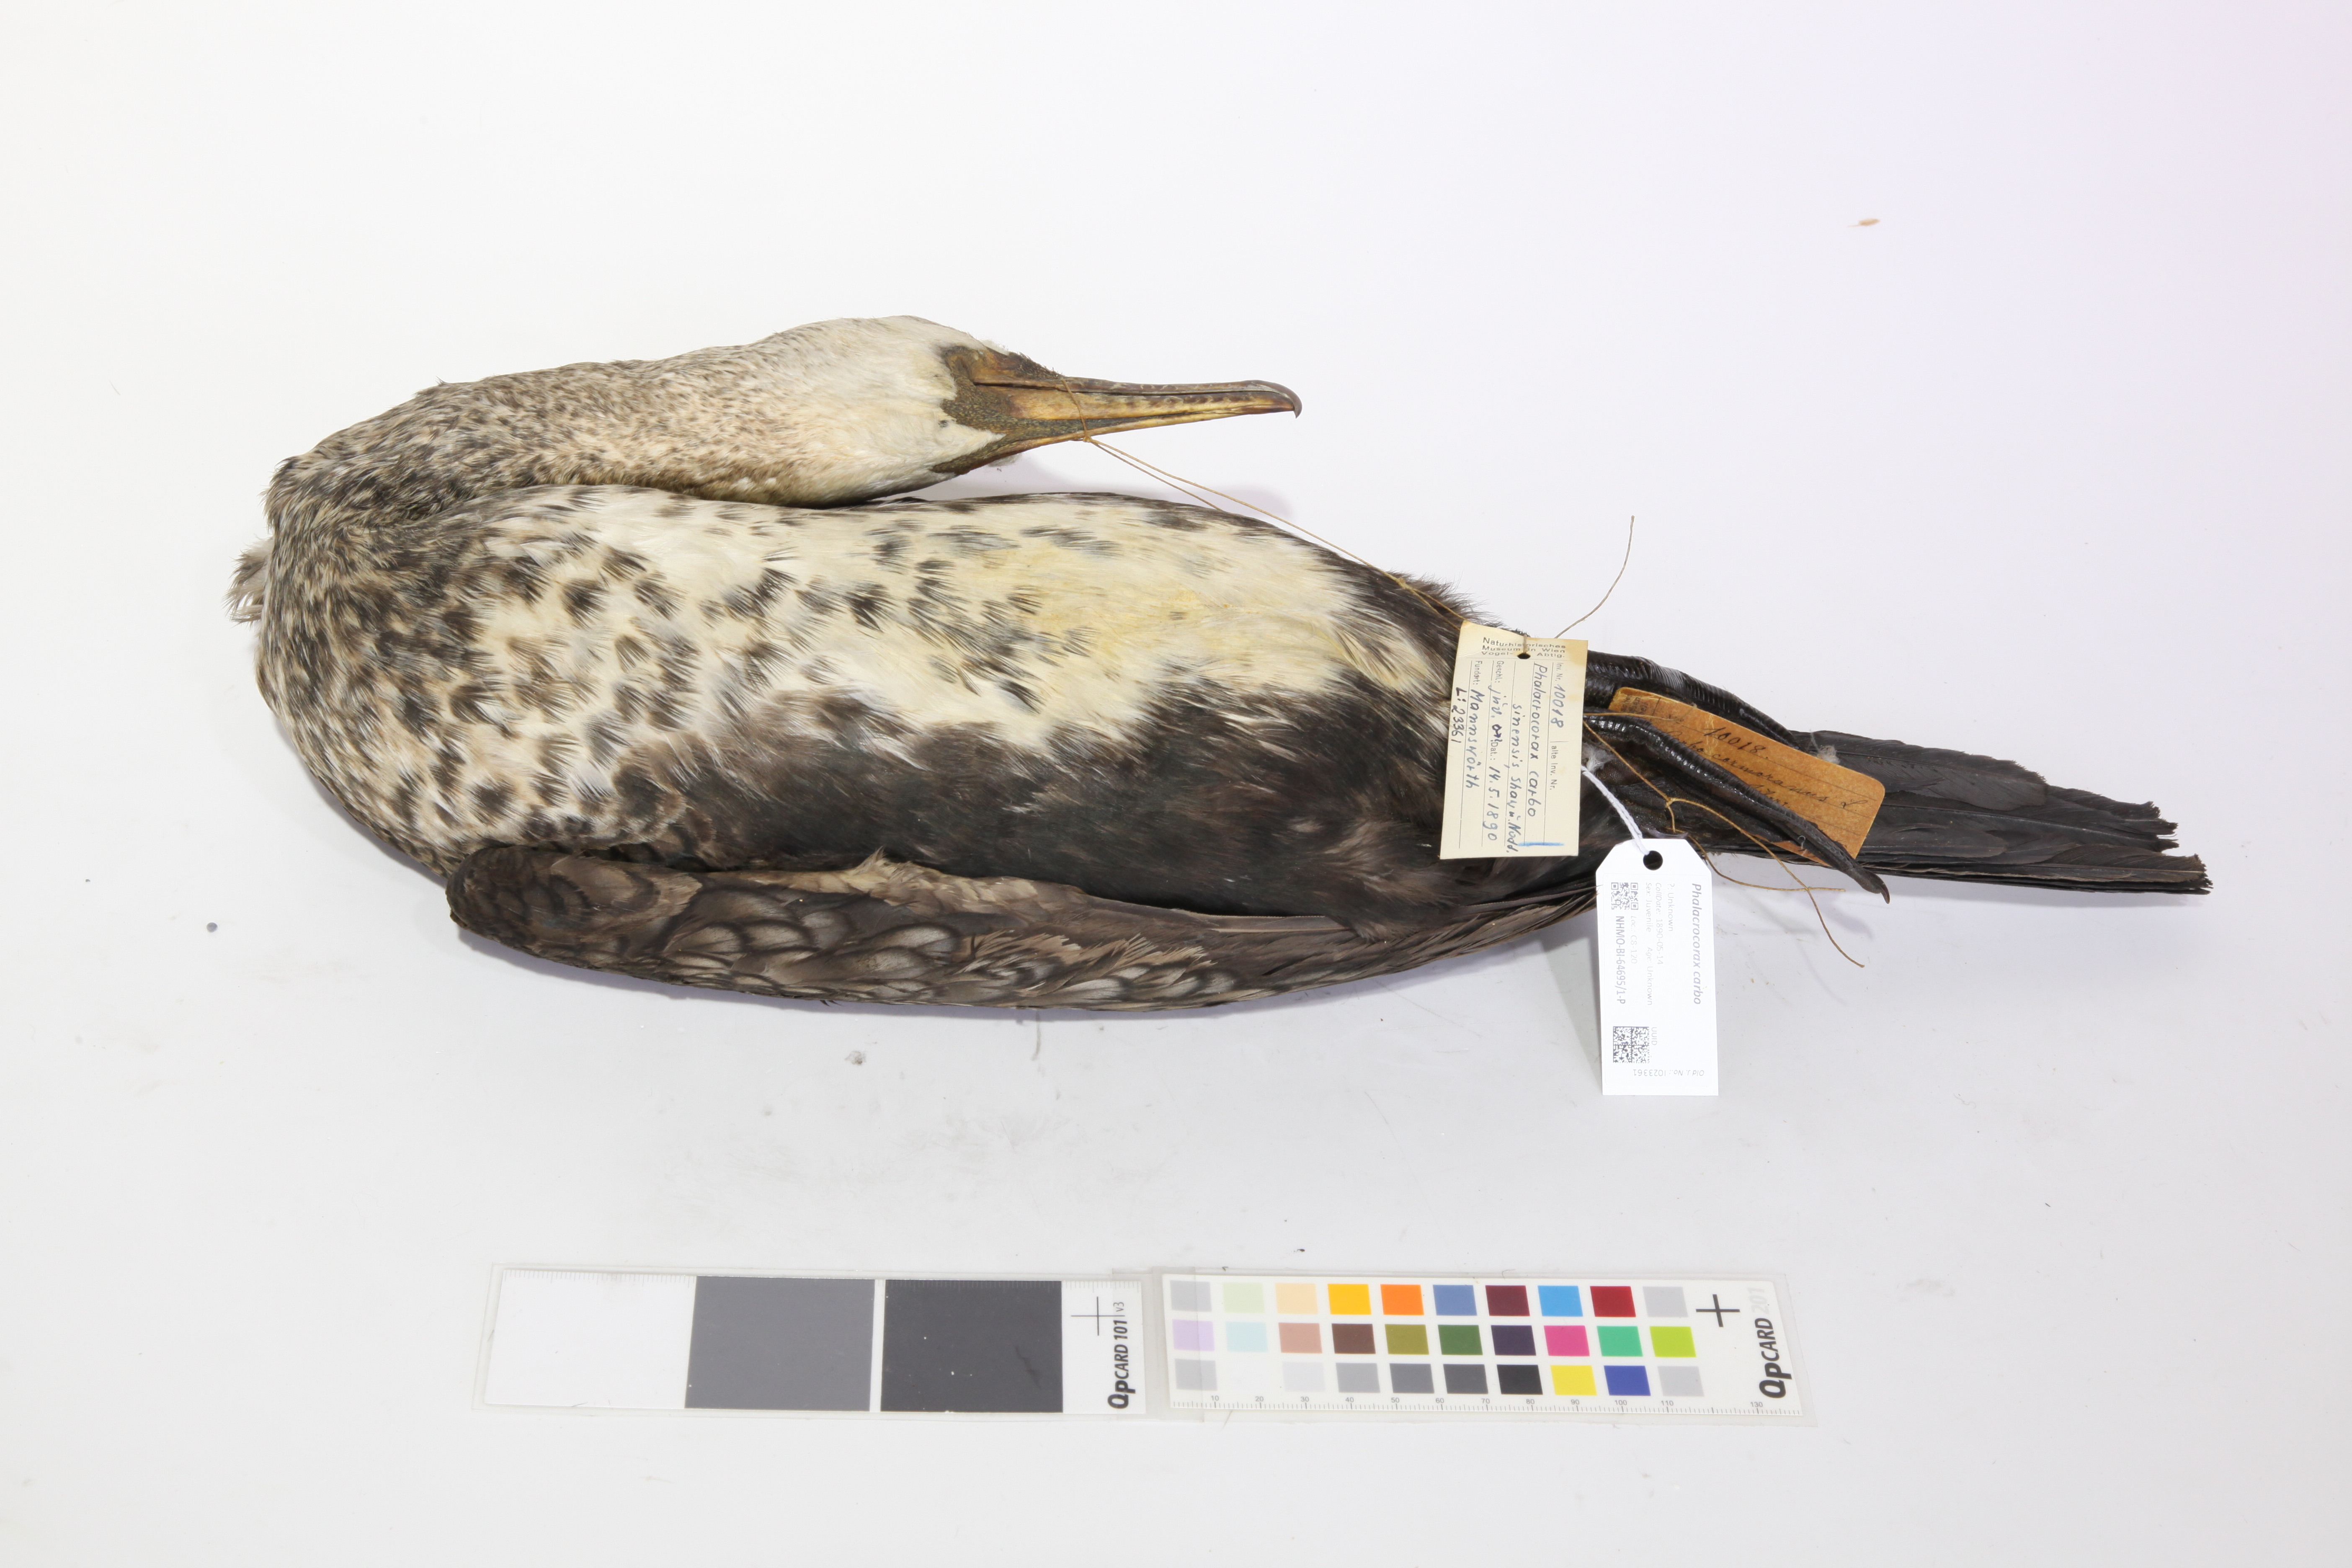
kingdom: Animalia
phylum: Chordata
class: Aves
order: Suliformes
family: Phalacrocoracidae
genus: Phalacrocorax
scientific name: Phalacrocorax carbo
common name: Great cormorant
